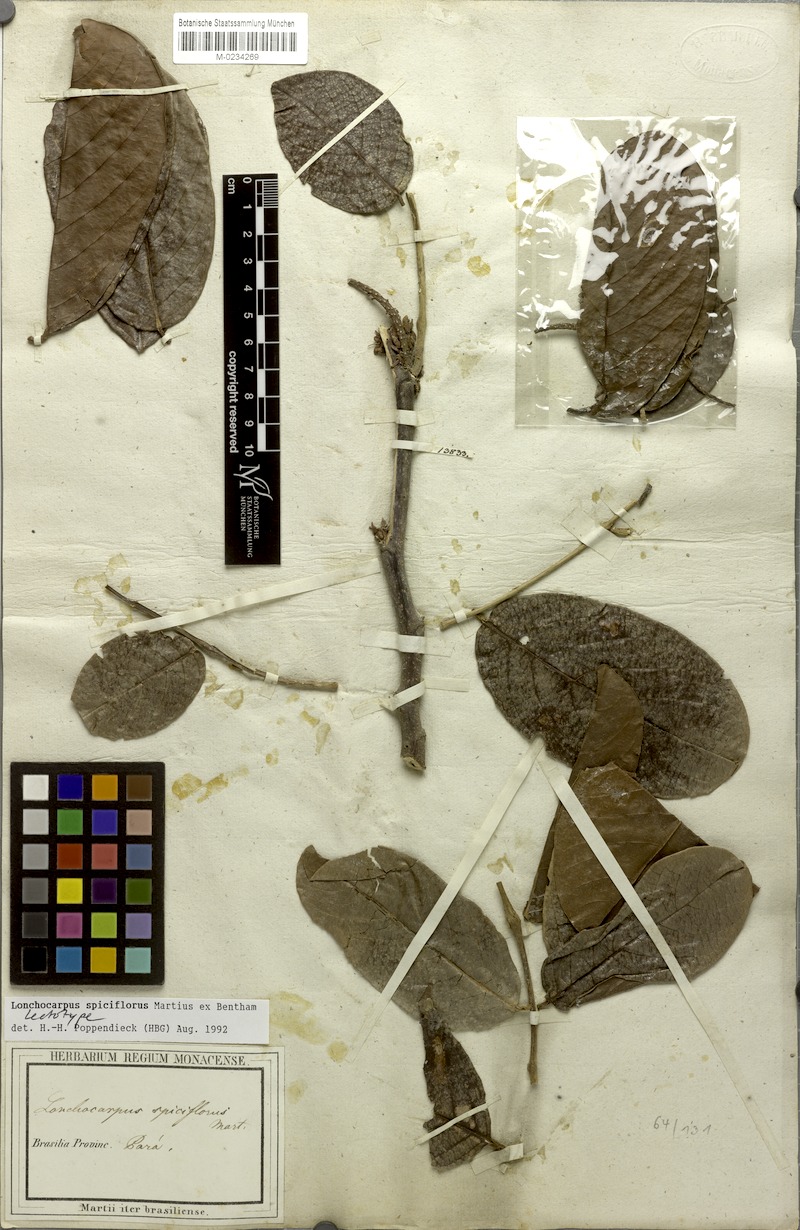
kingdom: Plantae
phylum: Tracheophyta
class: Magnoliopsida
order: Fabales
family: Fabaceae
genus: Lonchocarpus
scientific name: Lonchocarpus spiciflorus
